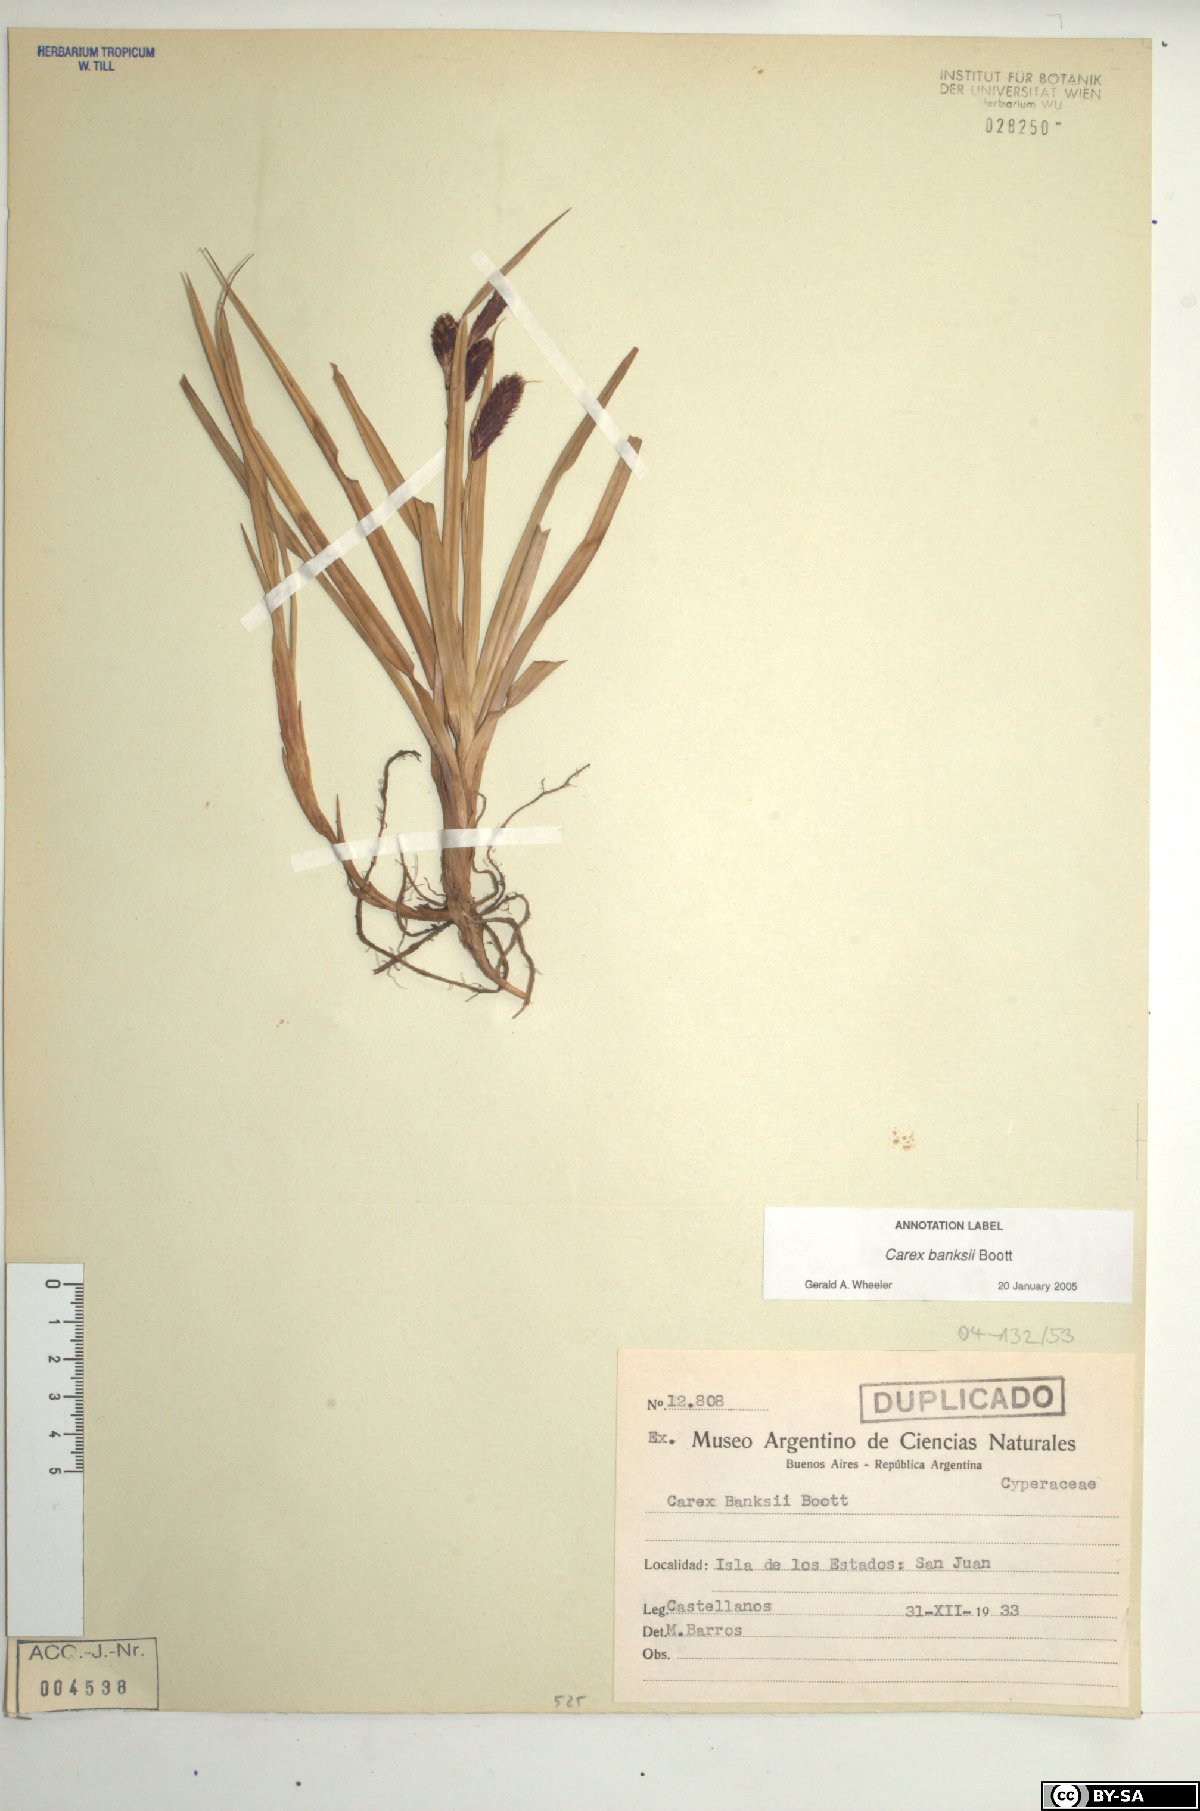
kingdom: Plantae
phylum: Tracheophyta
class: Liliopsida
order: Poales
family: Cyperaceae
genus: Carex
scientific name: Carex banksii
